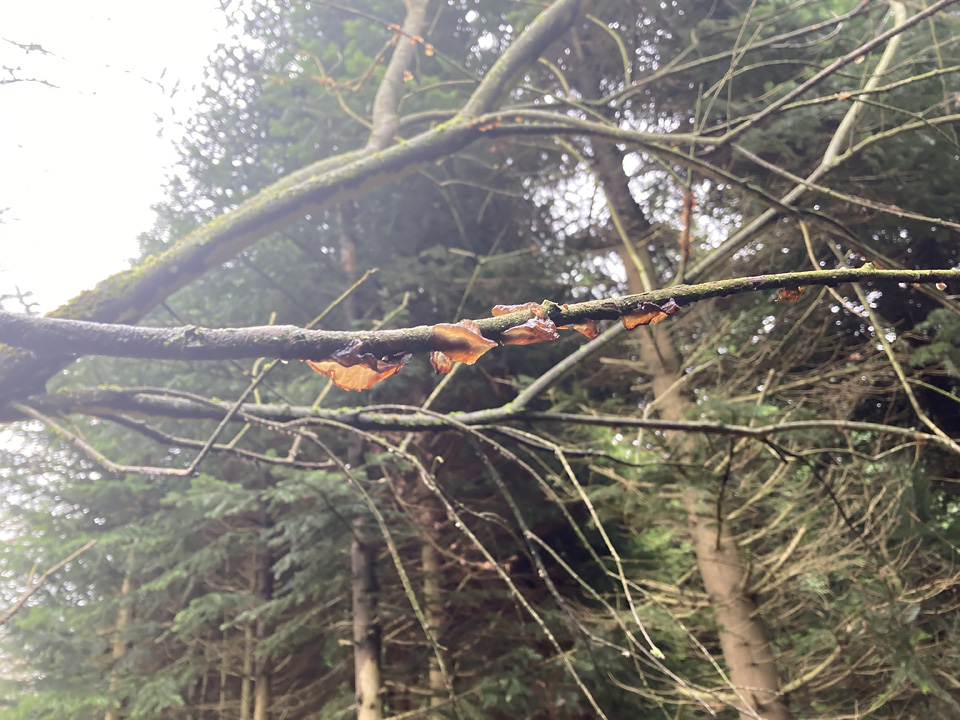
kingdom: Fungi
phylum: Basidiomycota
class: Agaricomycetes
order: Auriculariales
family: Auriculariaceae
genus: Exidia
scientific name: Exidia recisa
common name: pile-bævretop
